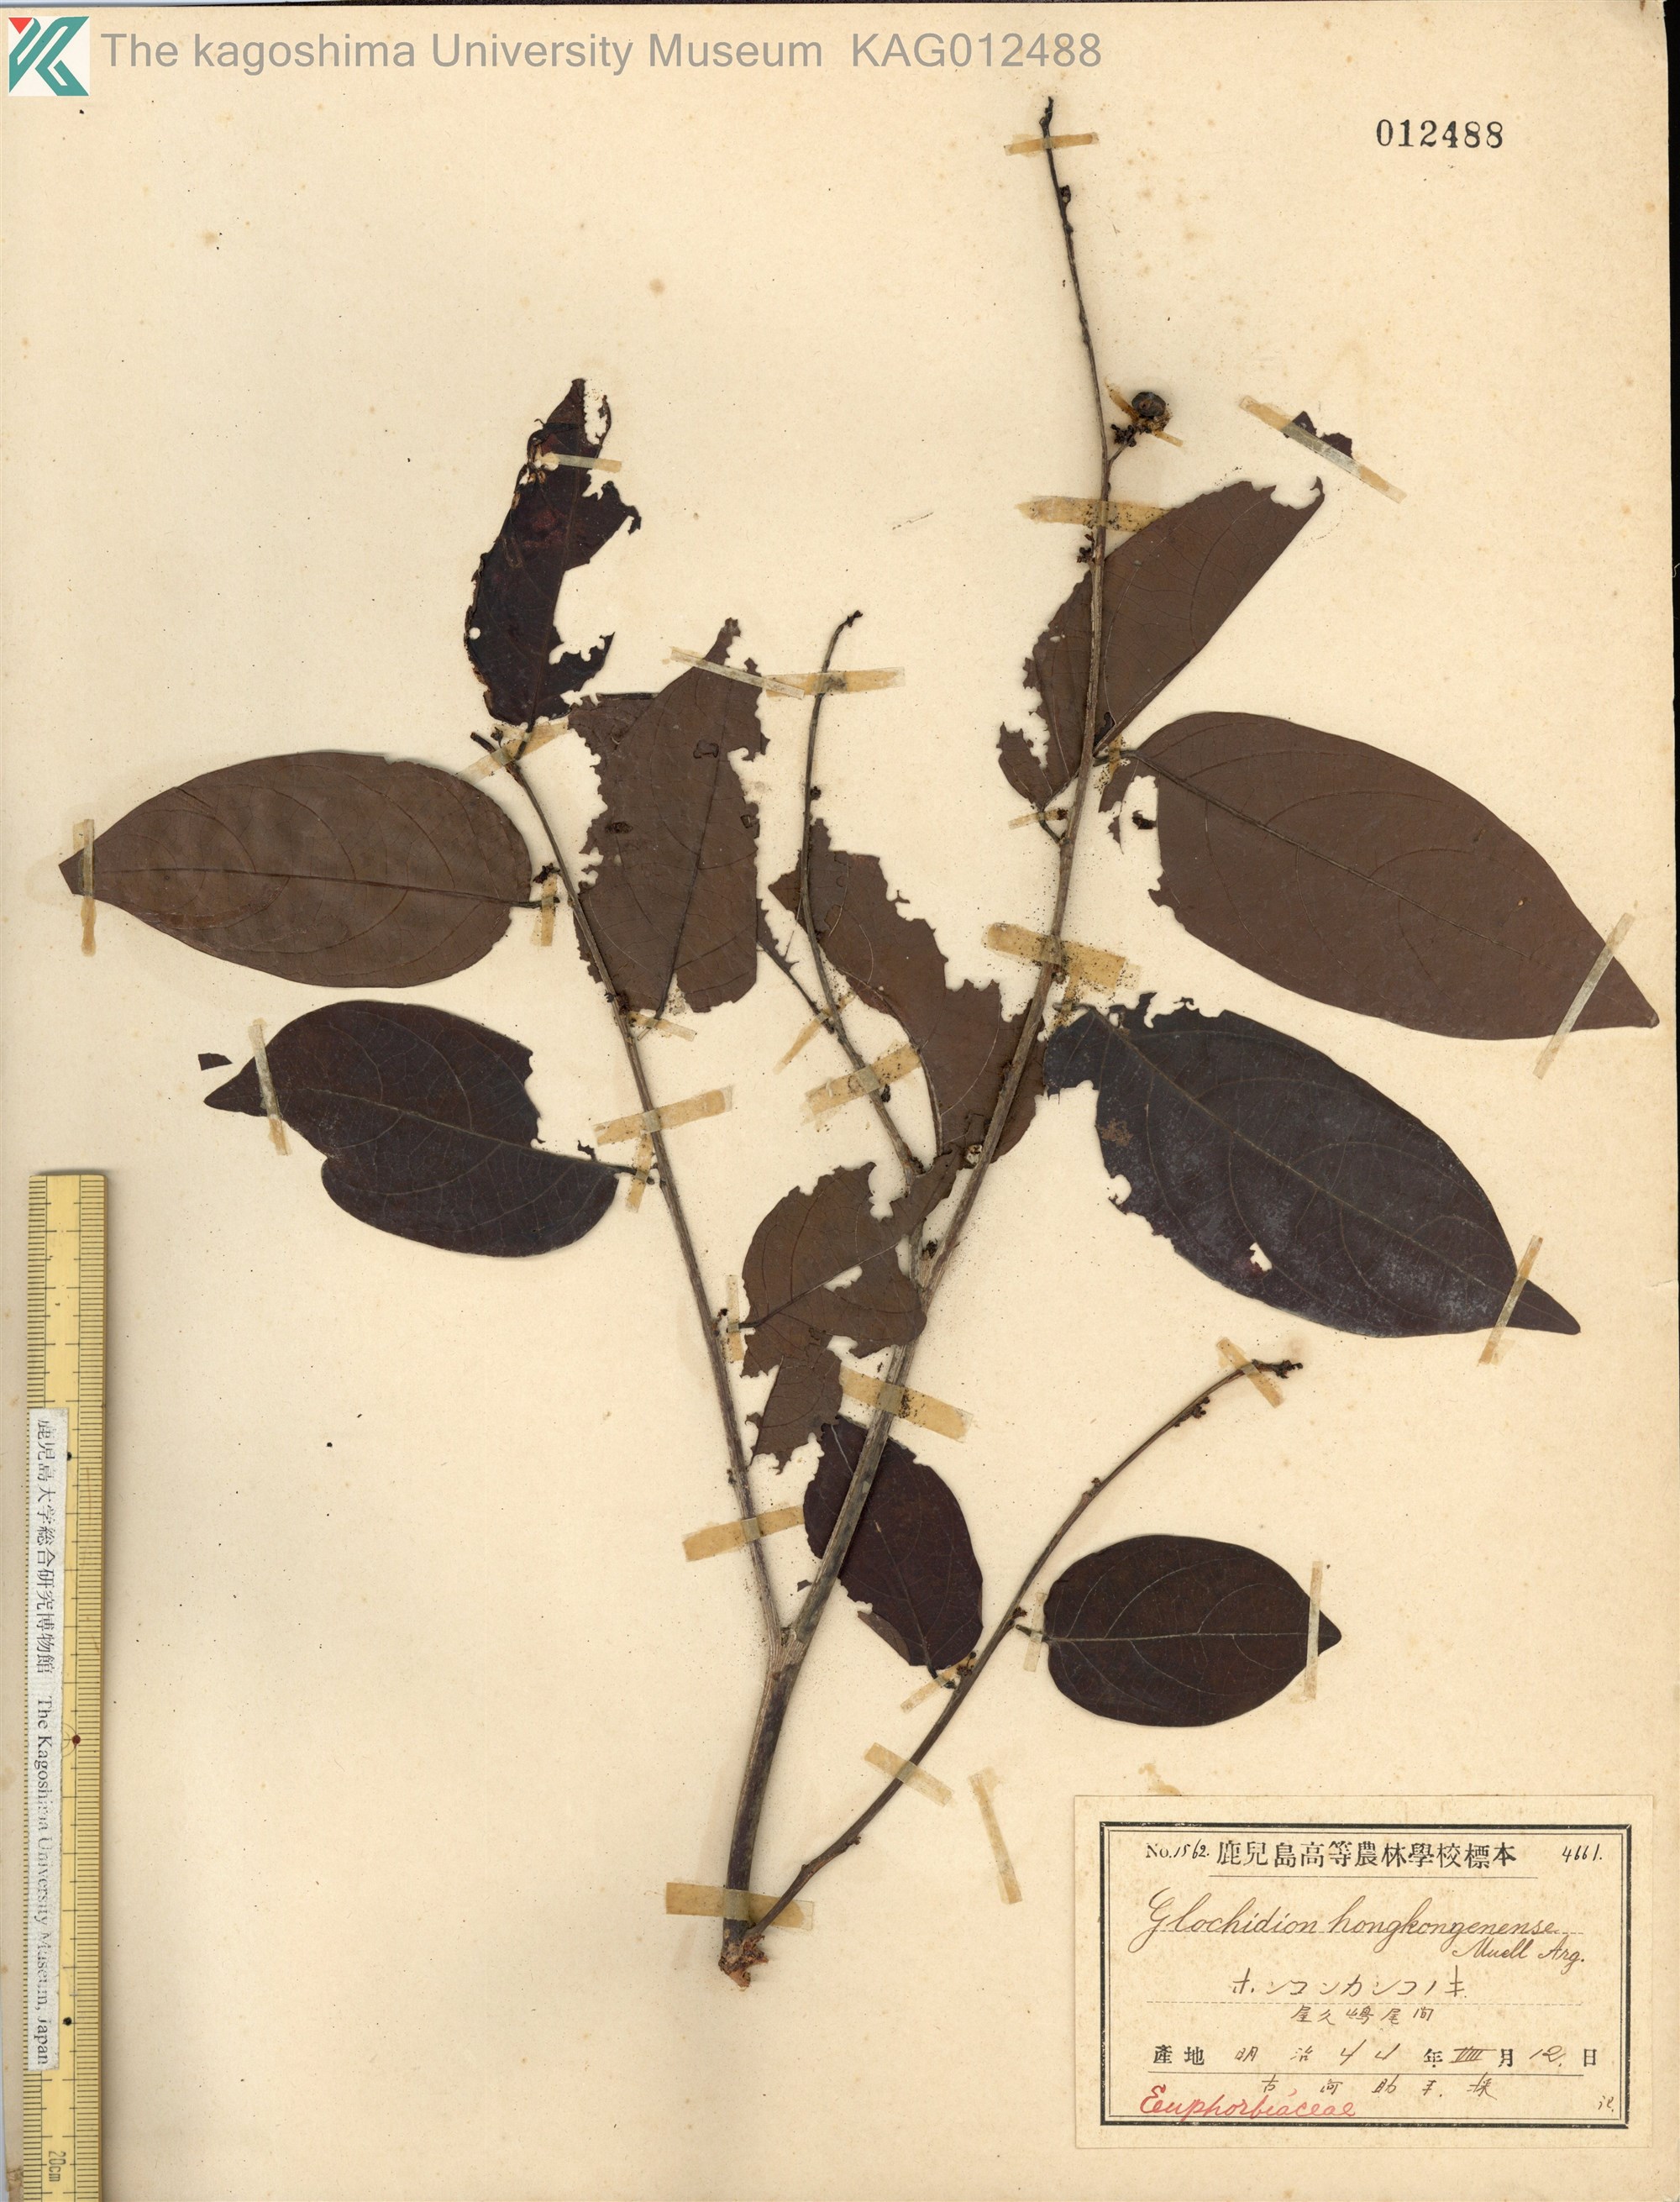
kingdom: Plantae
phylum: Tracheophyta
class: Magnoliopsida
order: Malpighiales
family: Phyllanthaceae
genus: Glochidion
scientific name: Glochidion zeylanicum
